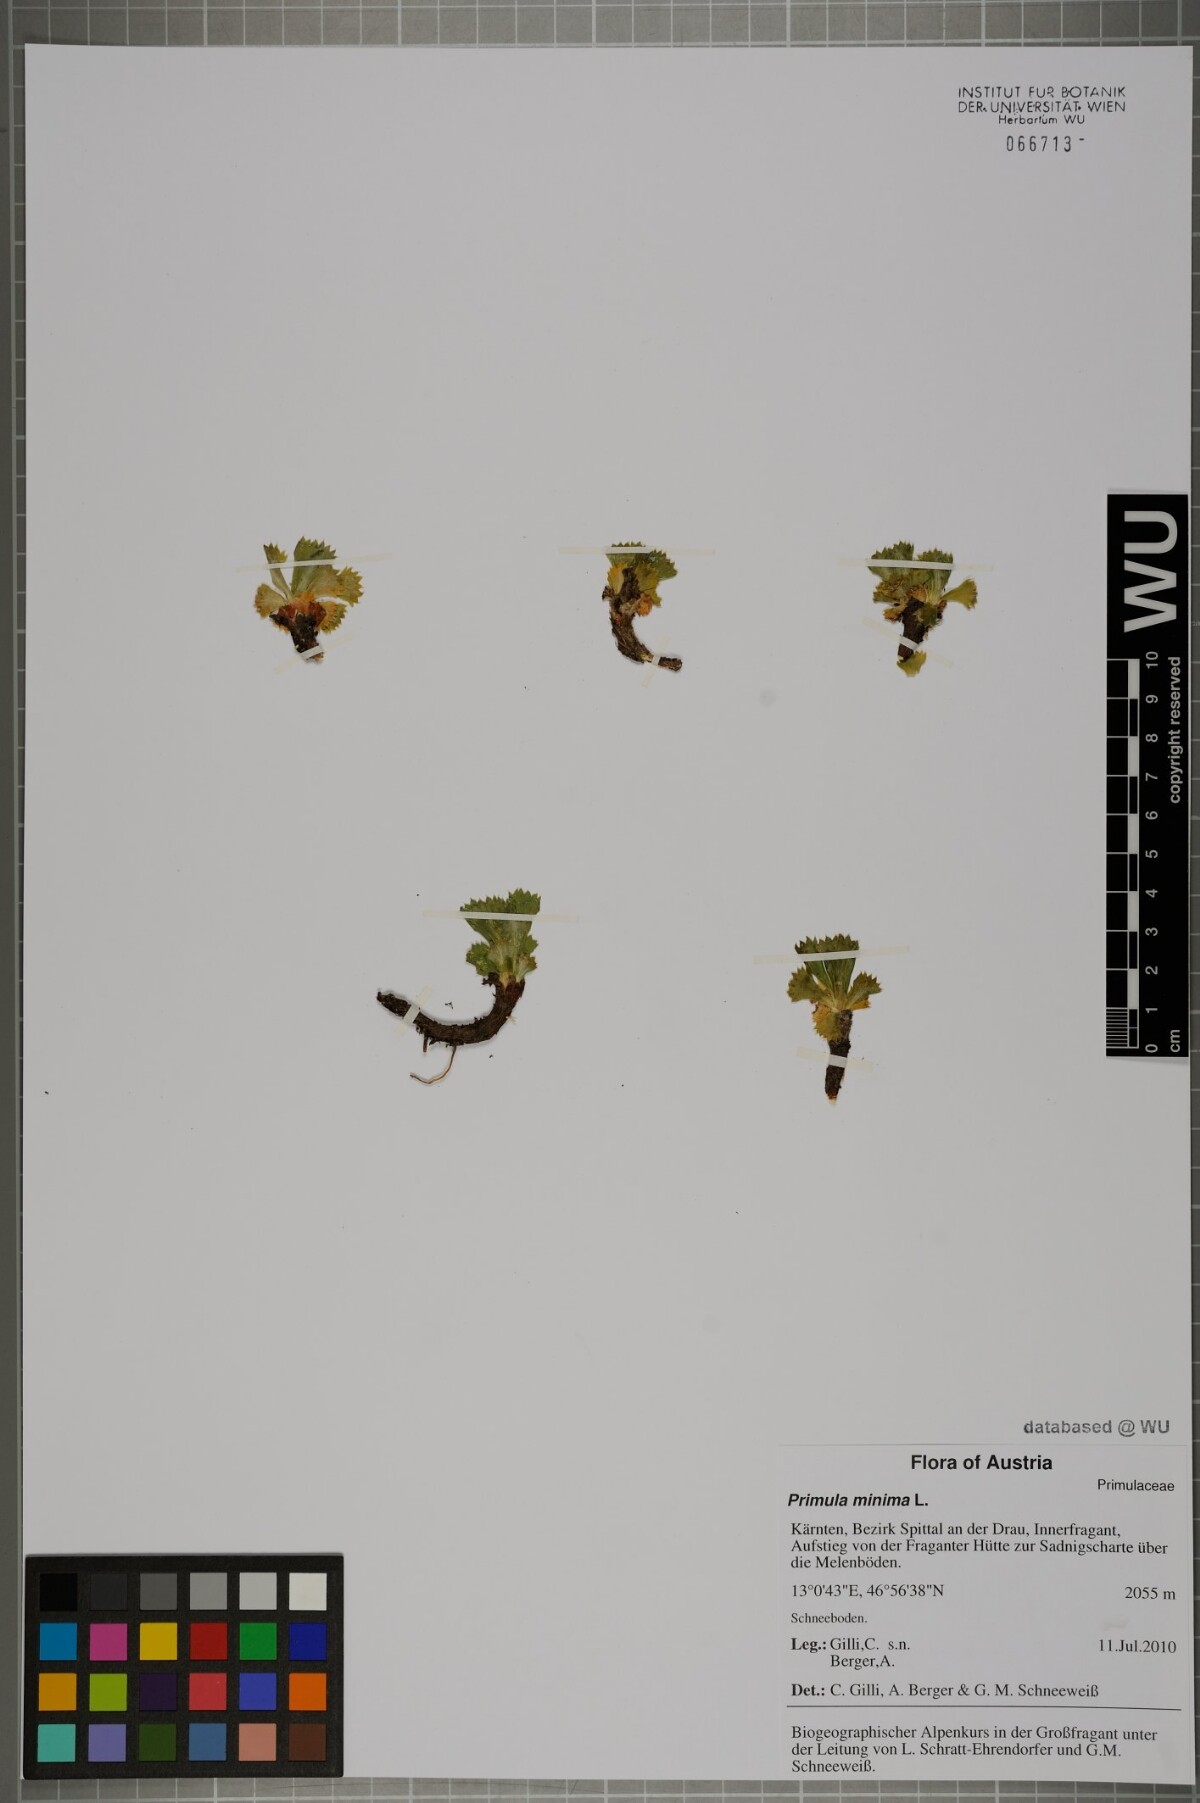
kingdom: Plantae
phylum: Tracheophyta
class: Magnoliopsida
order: Ericales
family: Primulaceae
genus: Primula
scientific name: Primula minima
